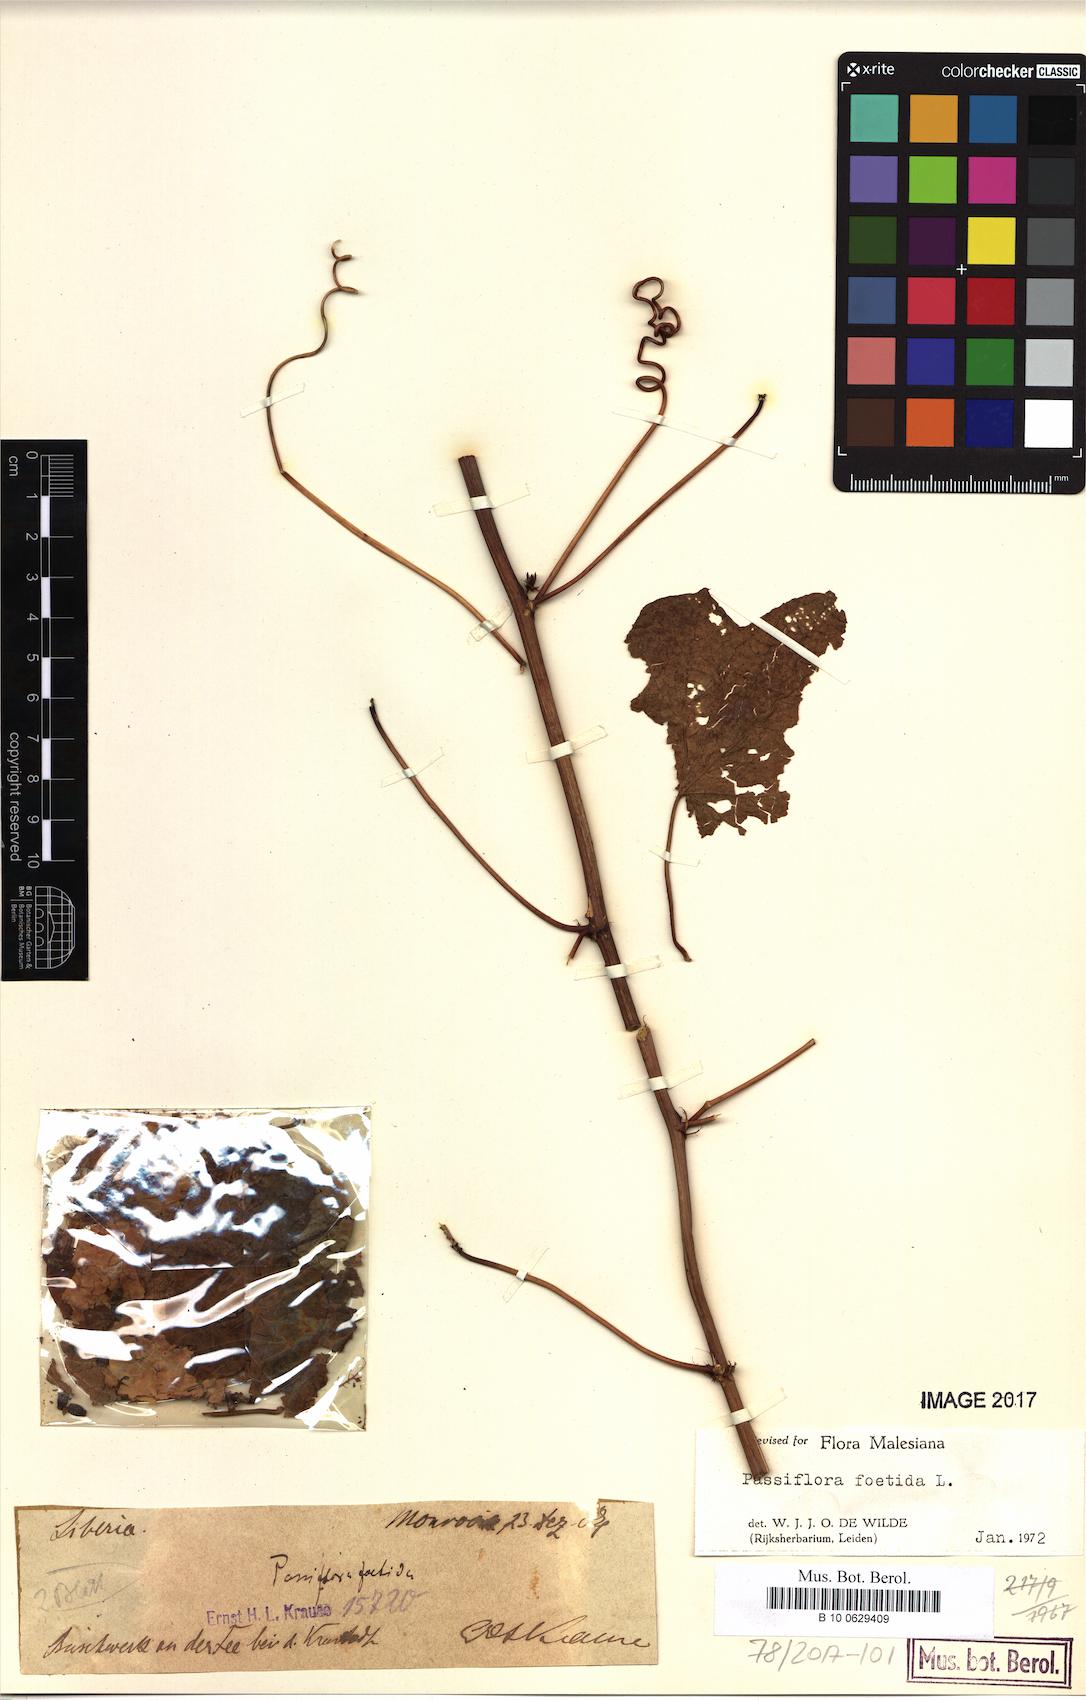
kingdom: Plantae
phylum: Tracheophyta
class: Magnoliopsida
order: Malpighiales
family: Passifloraceae
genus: Passiflora
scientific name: Passiflora foetida
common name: Fetid passionflower
